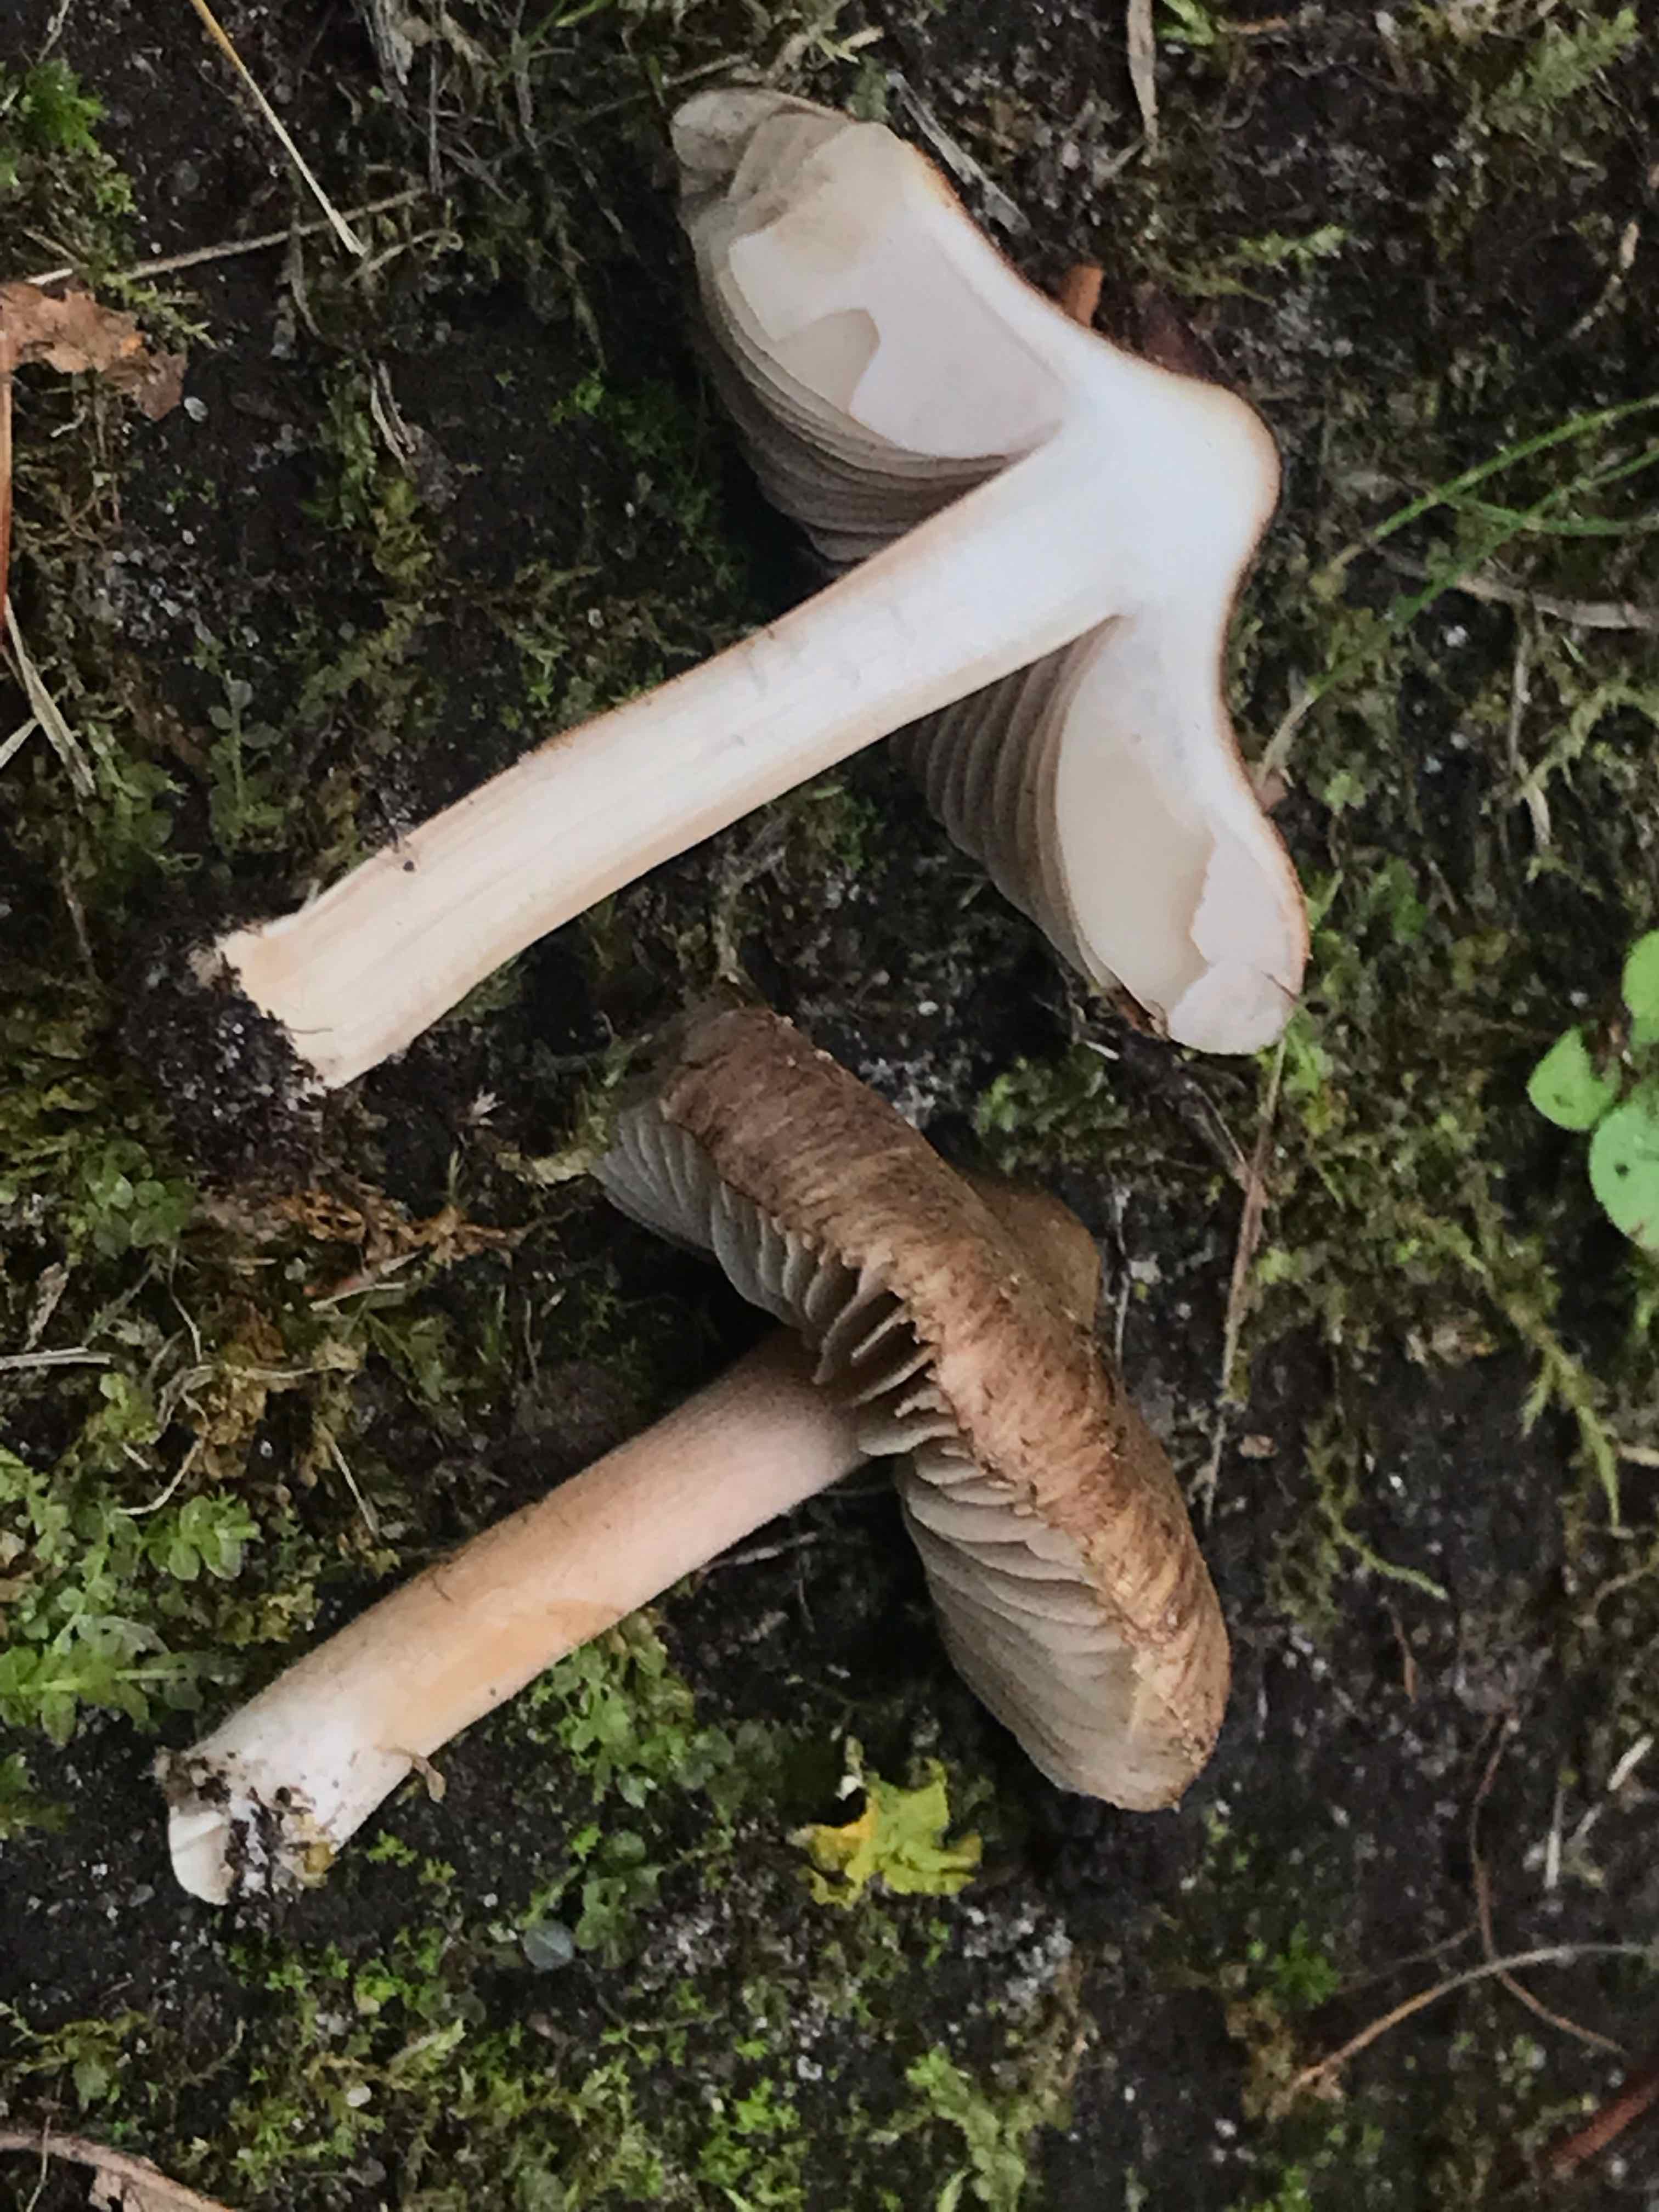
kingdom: Fungi
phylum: Basidiomycota
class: Agaricomycetes
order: Agaricales
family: Inocybaceae
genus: Inocybe
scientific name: Inocybe
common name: trævlhat
